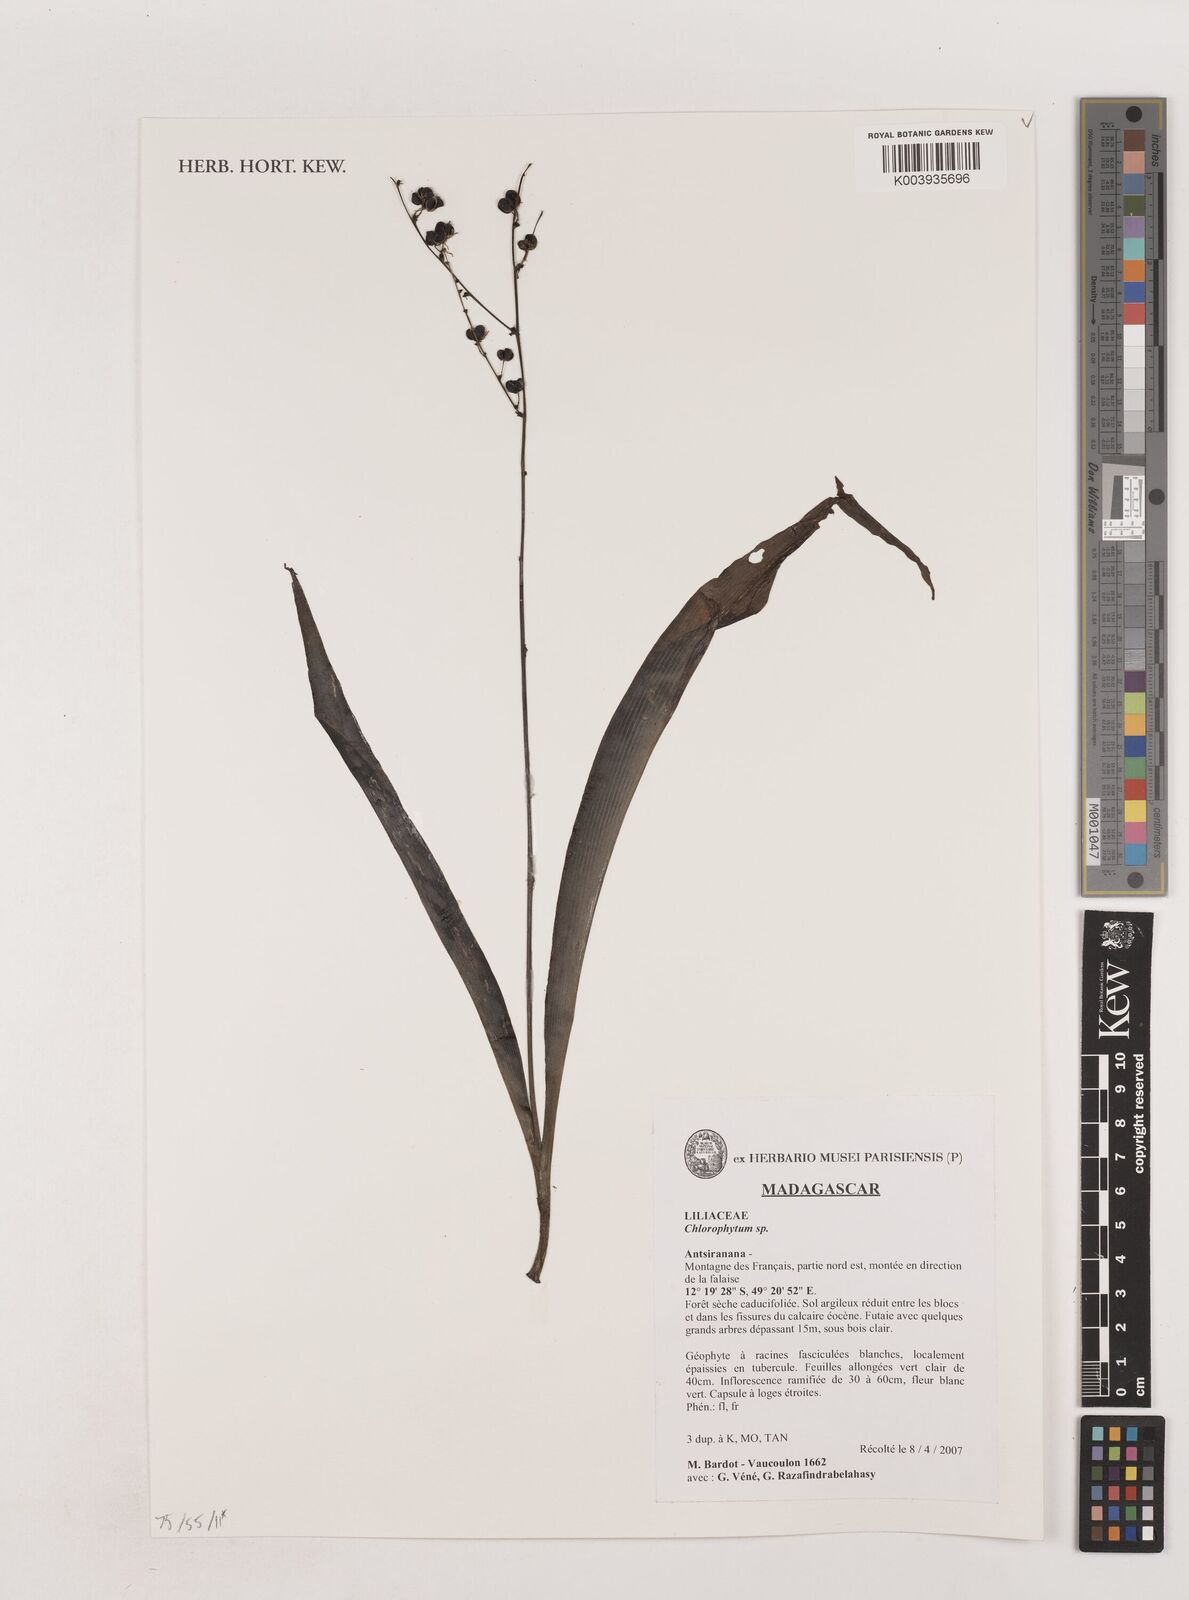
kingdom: Plantae
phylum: Tracheophyta
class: Liliopsida
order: Asparagales
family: Asparagaceae
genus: Chlorophytum
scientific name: Chlorophytum
